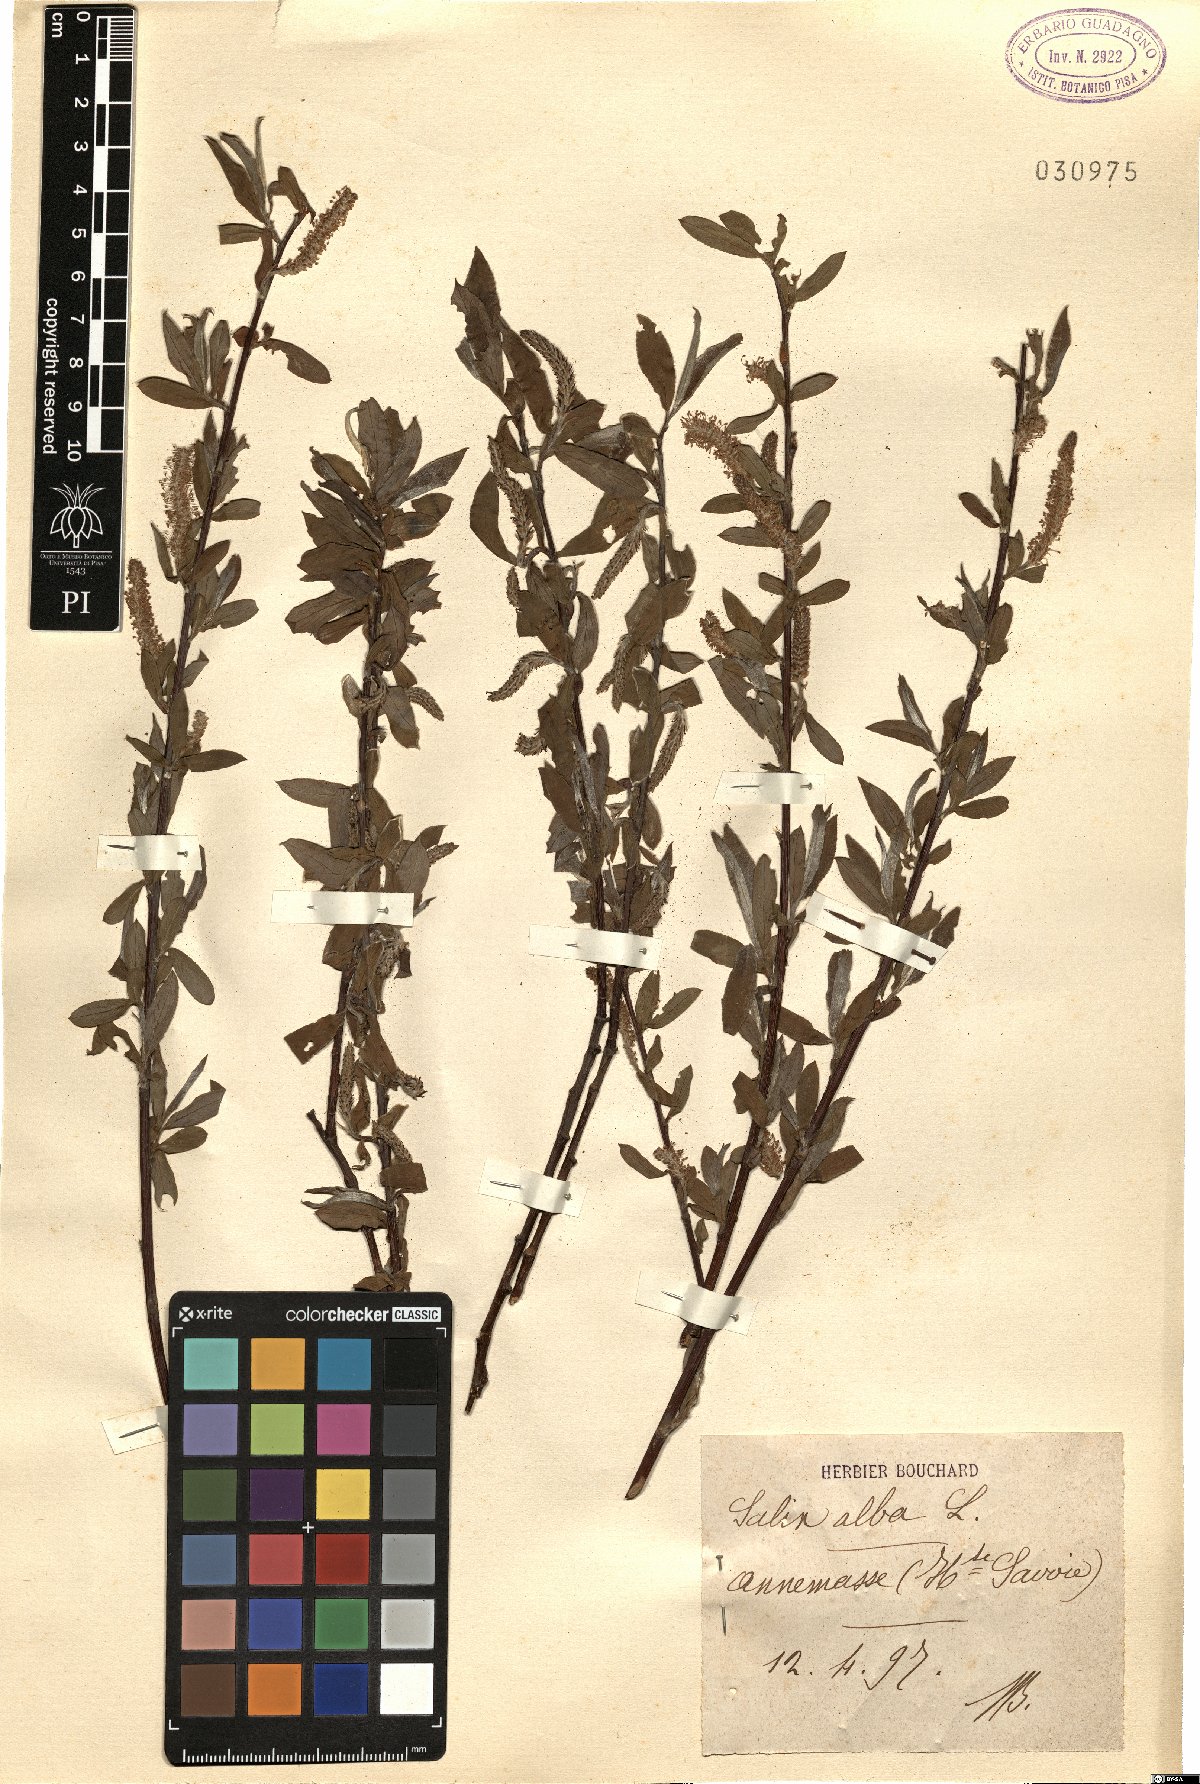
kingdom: Plantae
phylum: Tracheophyta
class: Magnoliopsida
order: Malpighiales
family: Salicaceae
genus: Salix
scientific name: Salix alba
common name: White willow
